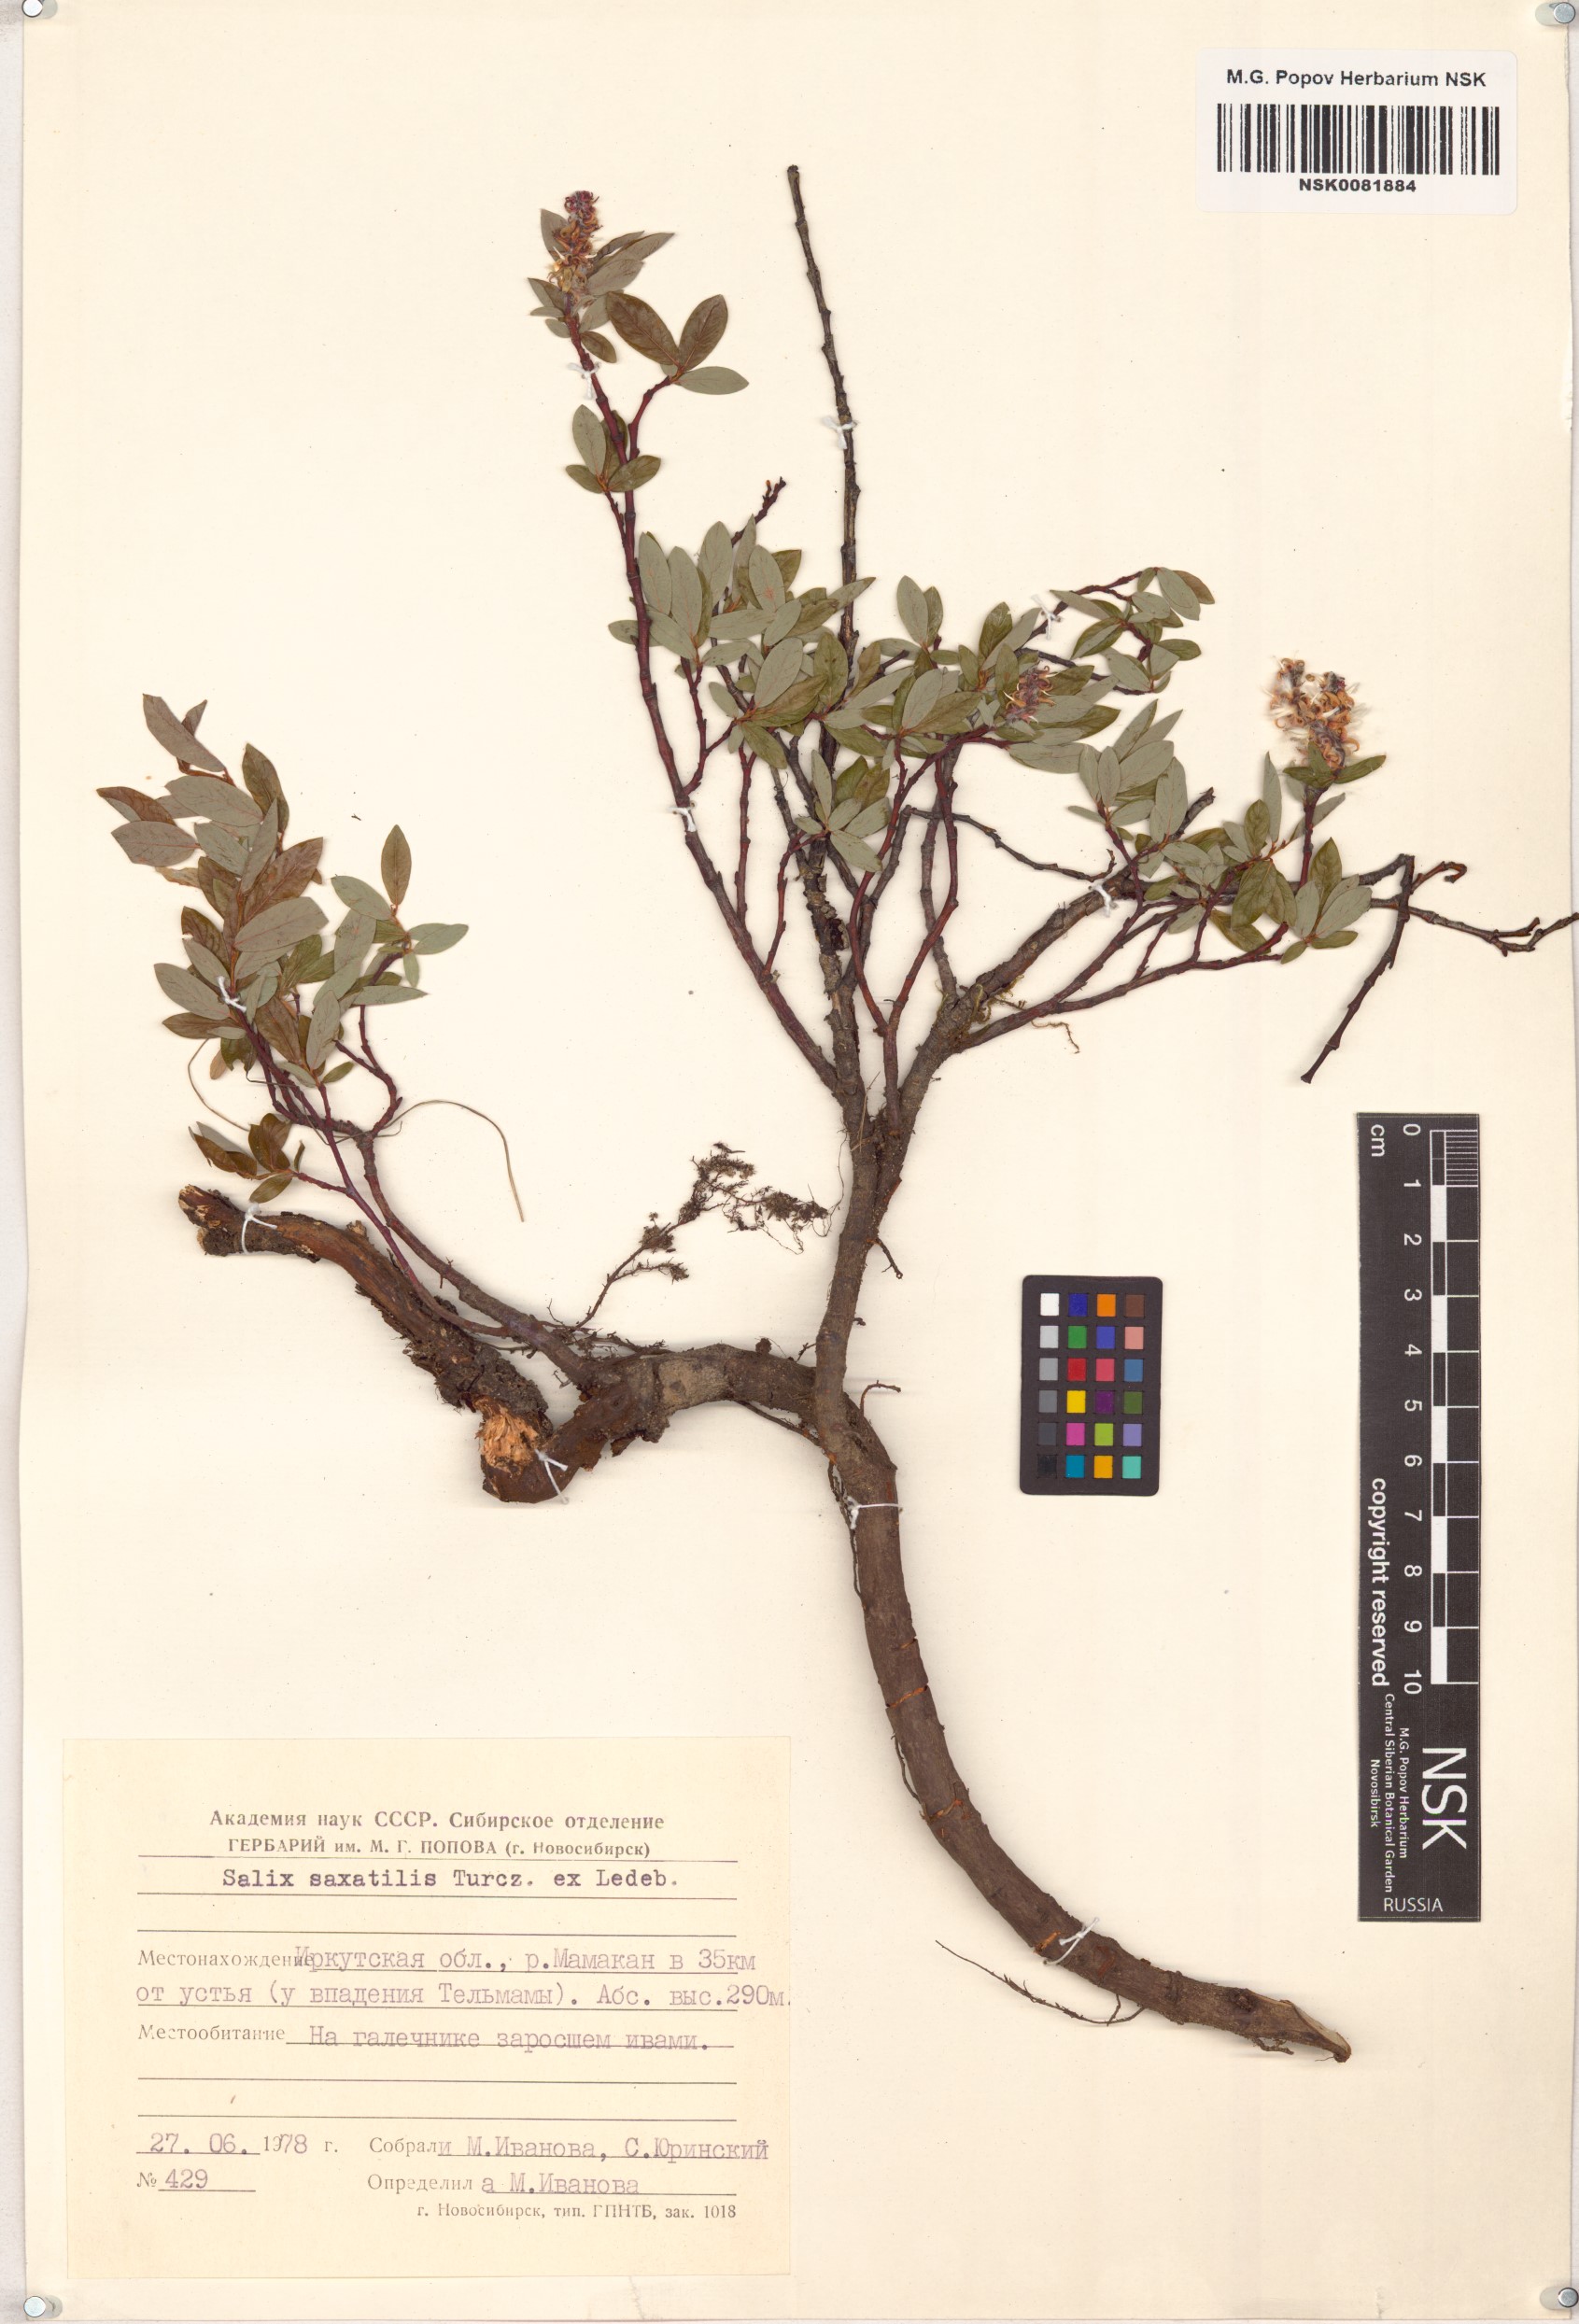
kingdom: Plantae
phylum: Tracheophyta
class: Magnoliopsida
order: Malpighiales
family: Salicaceae
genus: Salix
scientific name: Salix saxatilis
